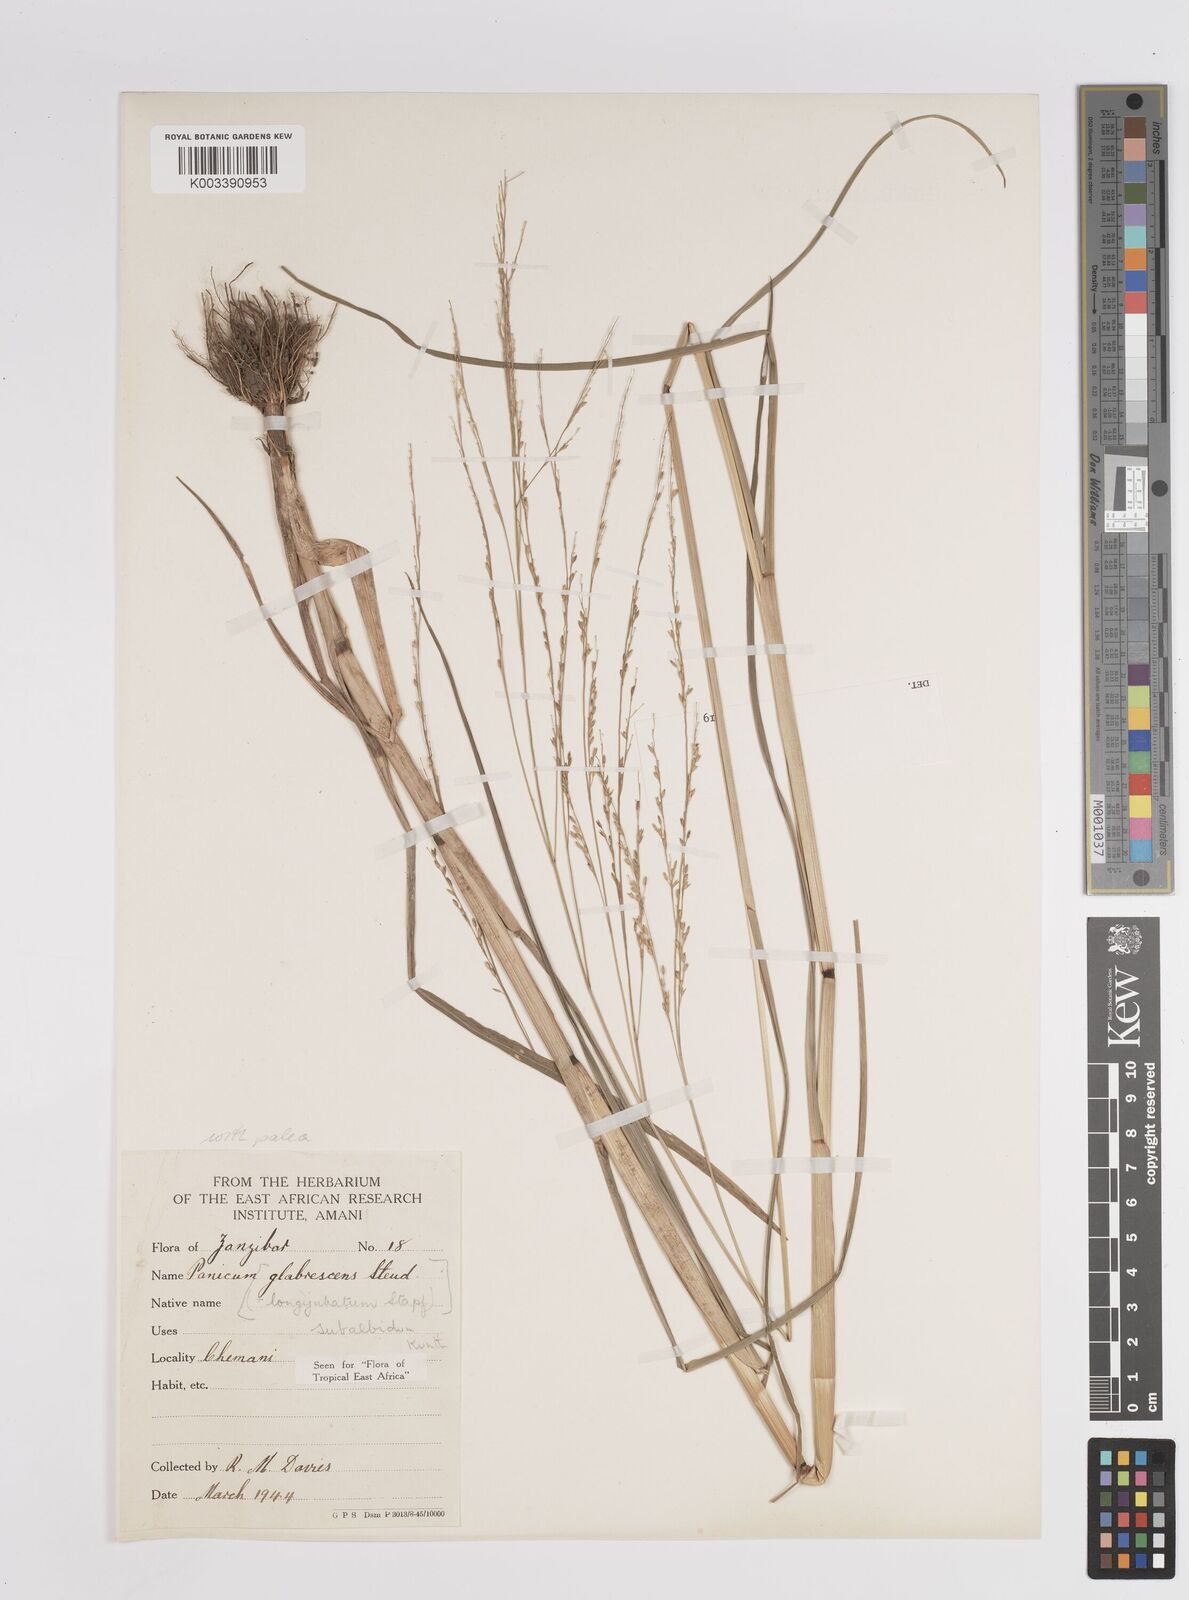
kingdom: Plantae
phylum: Tracheophyta
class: Liliopsida
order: Poales
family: Poaceae
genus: Panicum
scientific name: Panicum subalbidum
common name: Elbow buffalo grass
